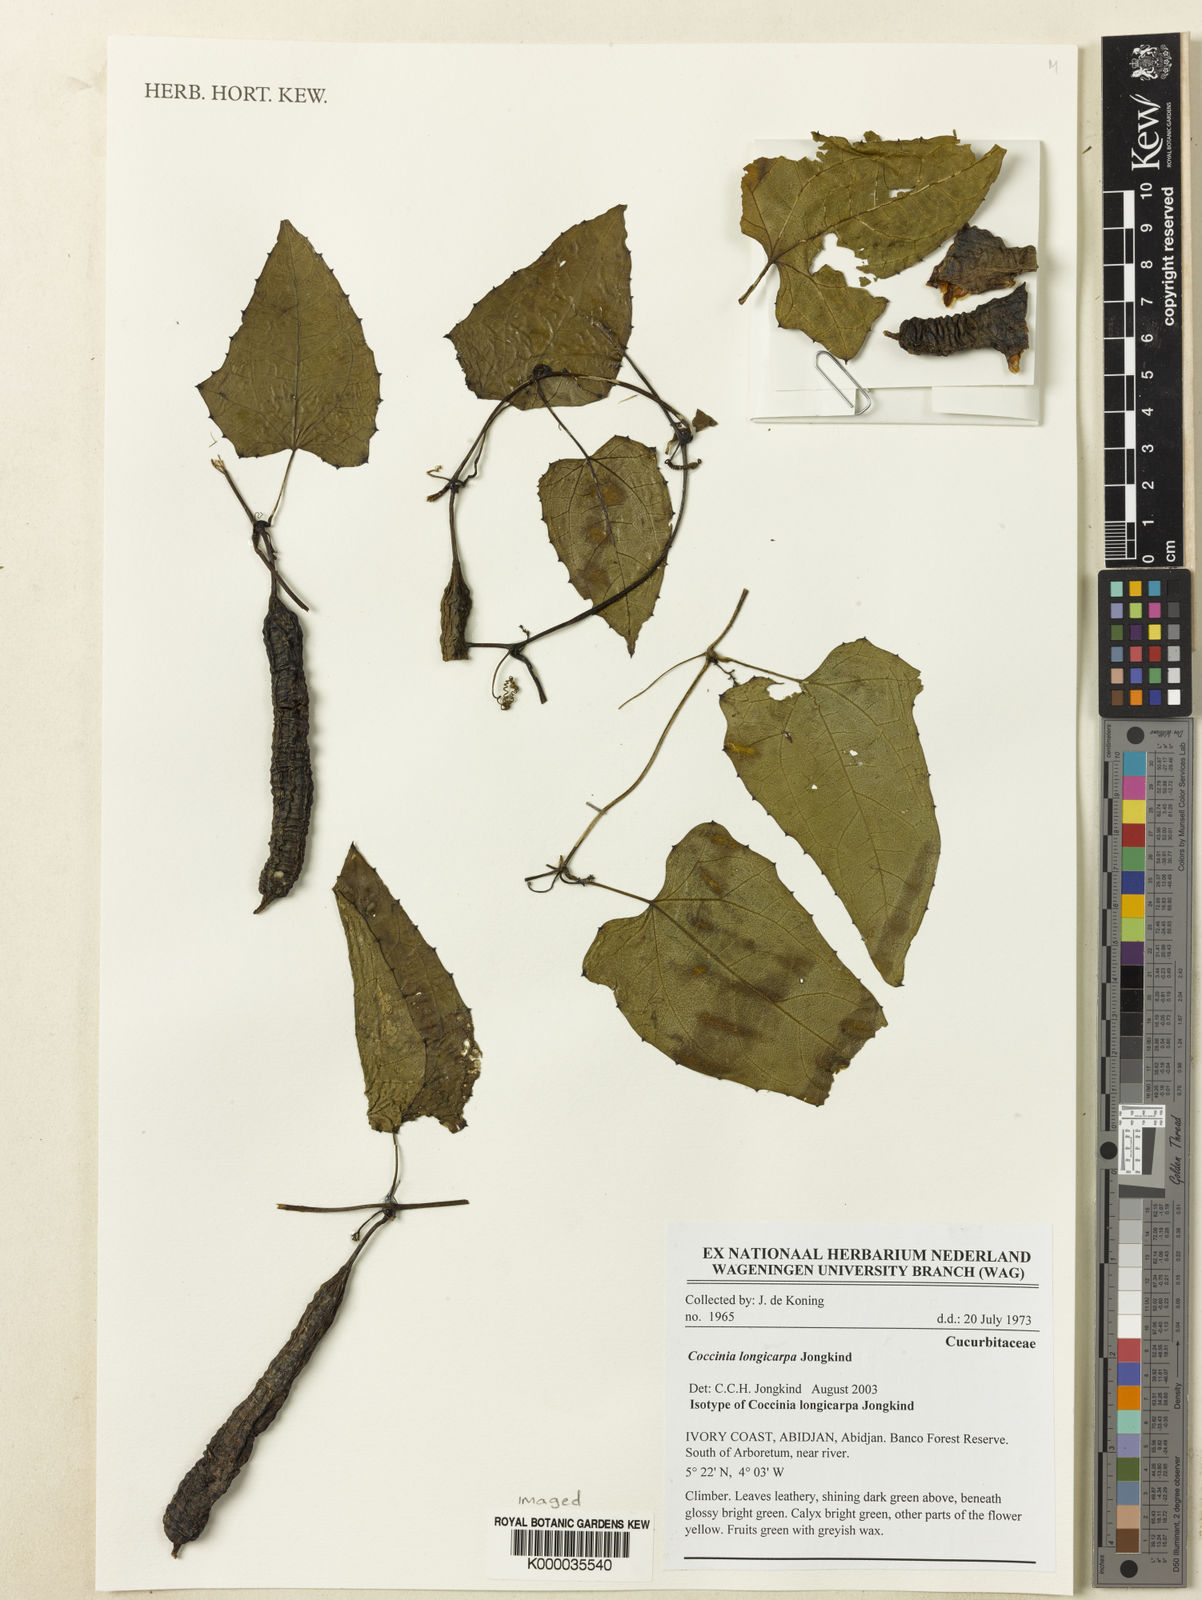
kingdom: Plantae
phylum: Tracheophyta
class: Magnoliopsida
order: Cucurbitales
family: Cucurbitaceae
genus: Coccinia
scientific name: Coccinia longicarpa
